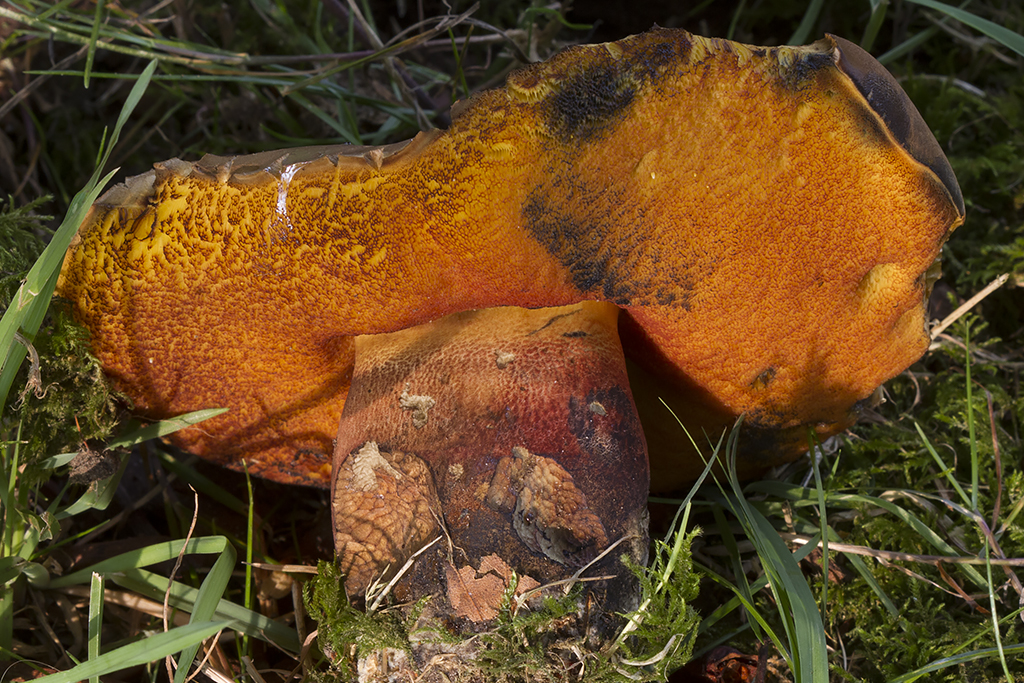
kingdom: Fungi
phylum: Basidiomycota
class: Agaricomycetes
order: Boletales
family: Boletaceae
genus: Neoboletus
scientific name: Neoboletus erythropus
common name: punktstokket indigorørhat
